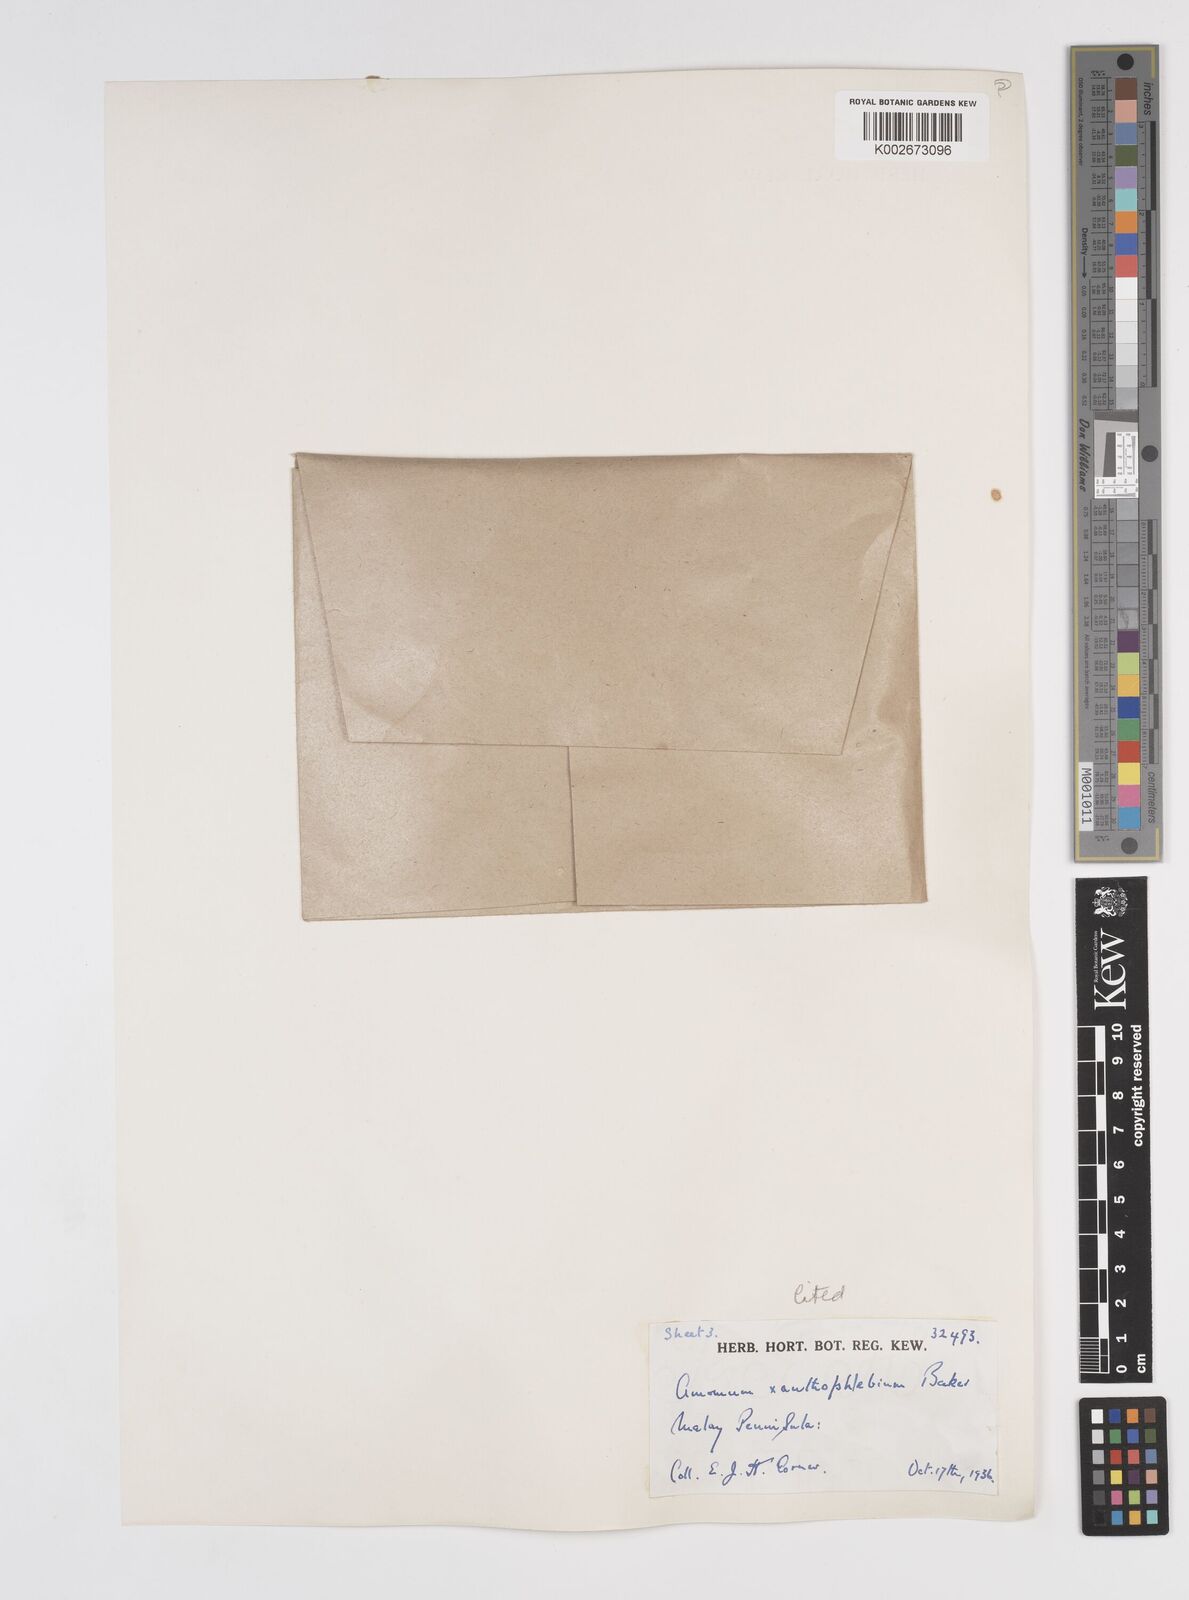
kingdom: Plantae
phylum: Tracheophyta
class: Liliopsida
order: Zingiberales
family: Zingiberaceae
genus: Conamomum
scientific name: Conamomum xanthophlebium
